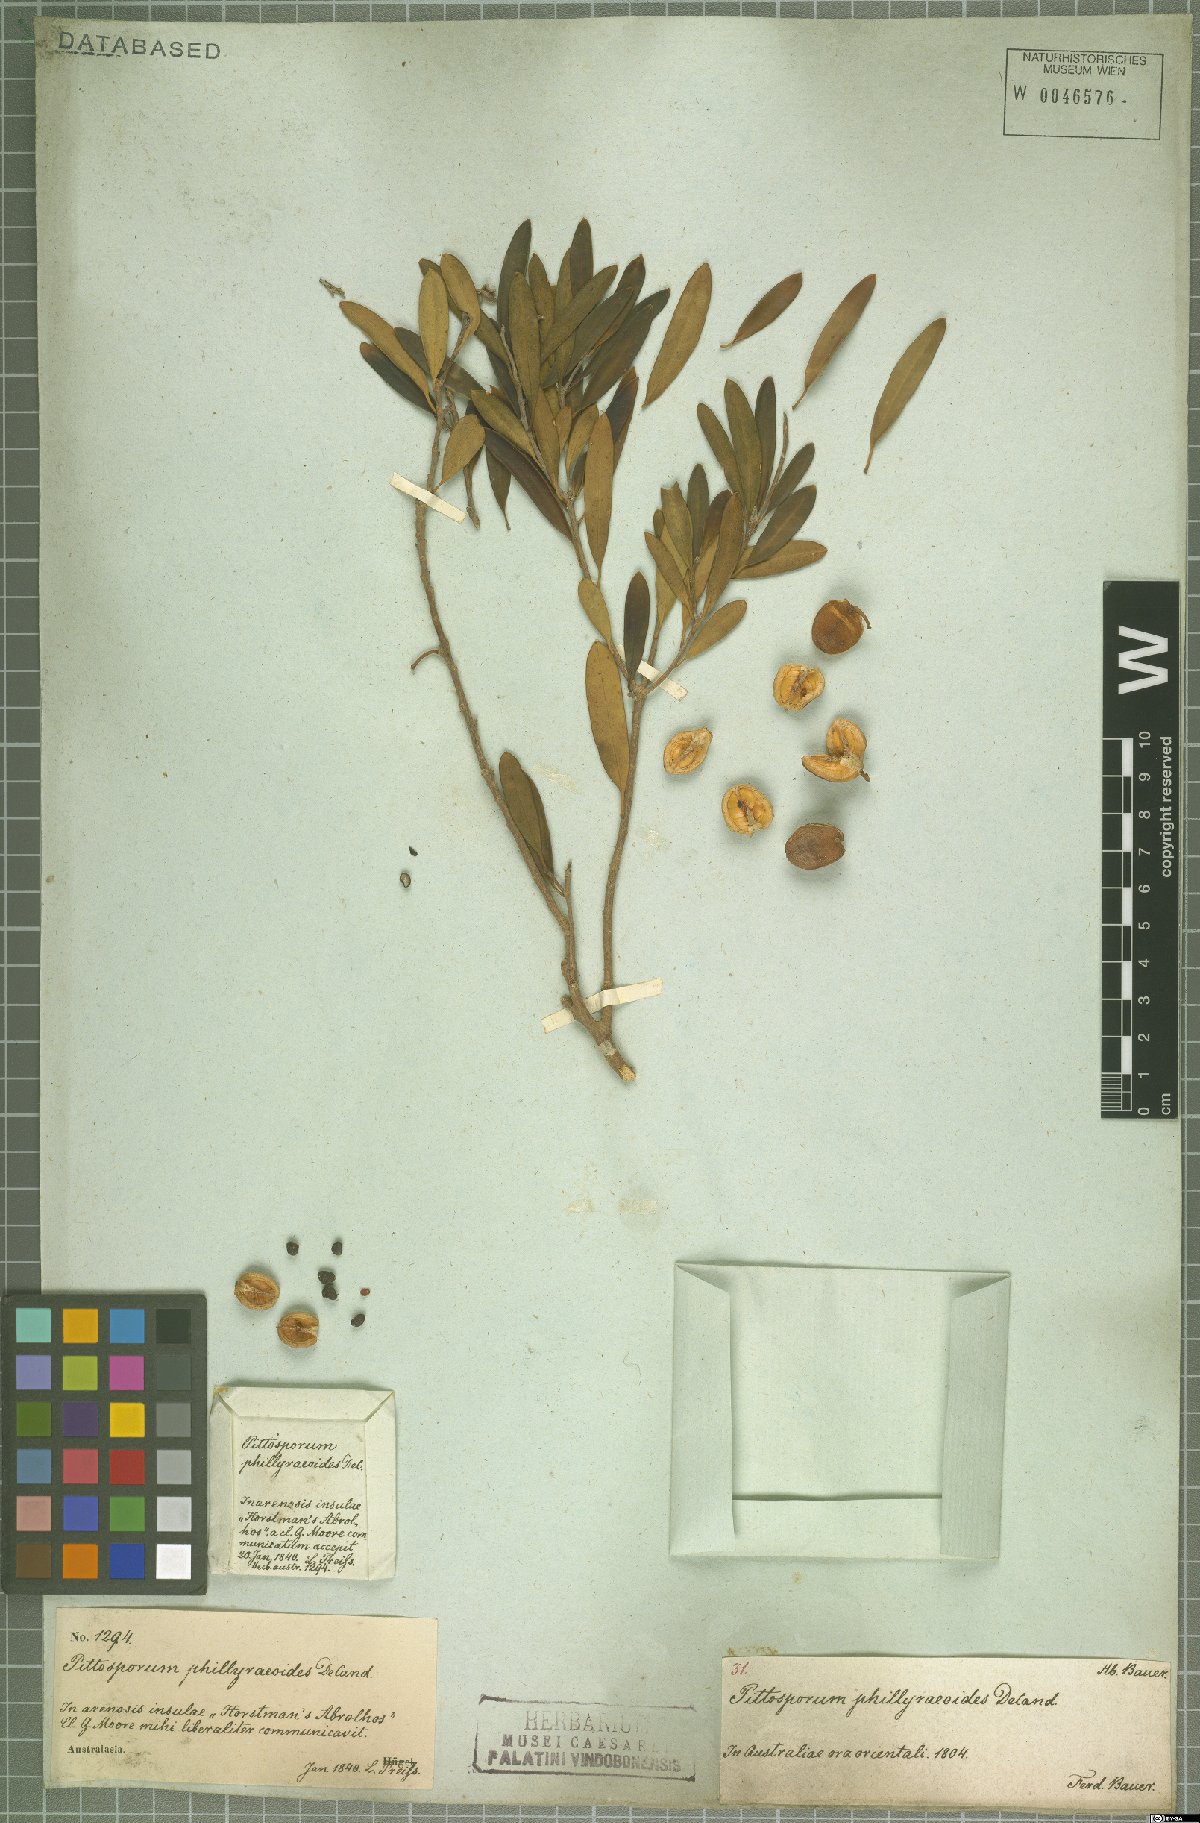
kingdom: Plantae
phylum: Tracheophyta
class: Magnoliopsida
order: Apiales
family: Pittosporaceae
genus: Pittosporum
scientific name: Pittosporum phillyreoides
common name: Willow pittosporum
